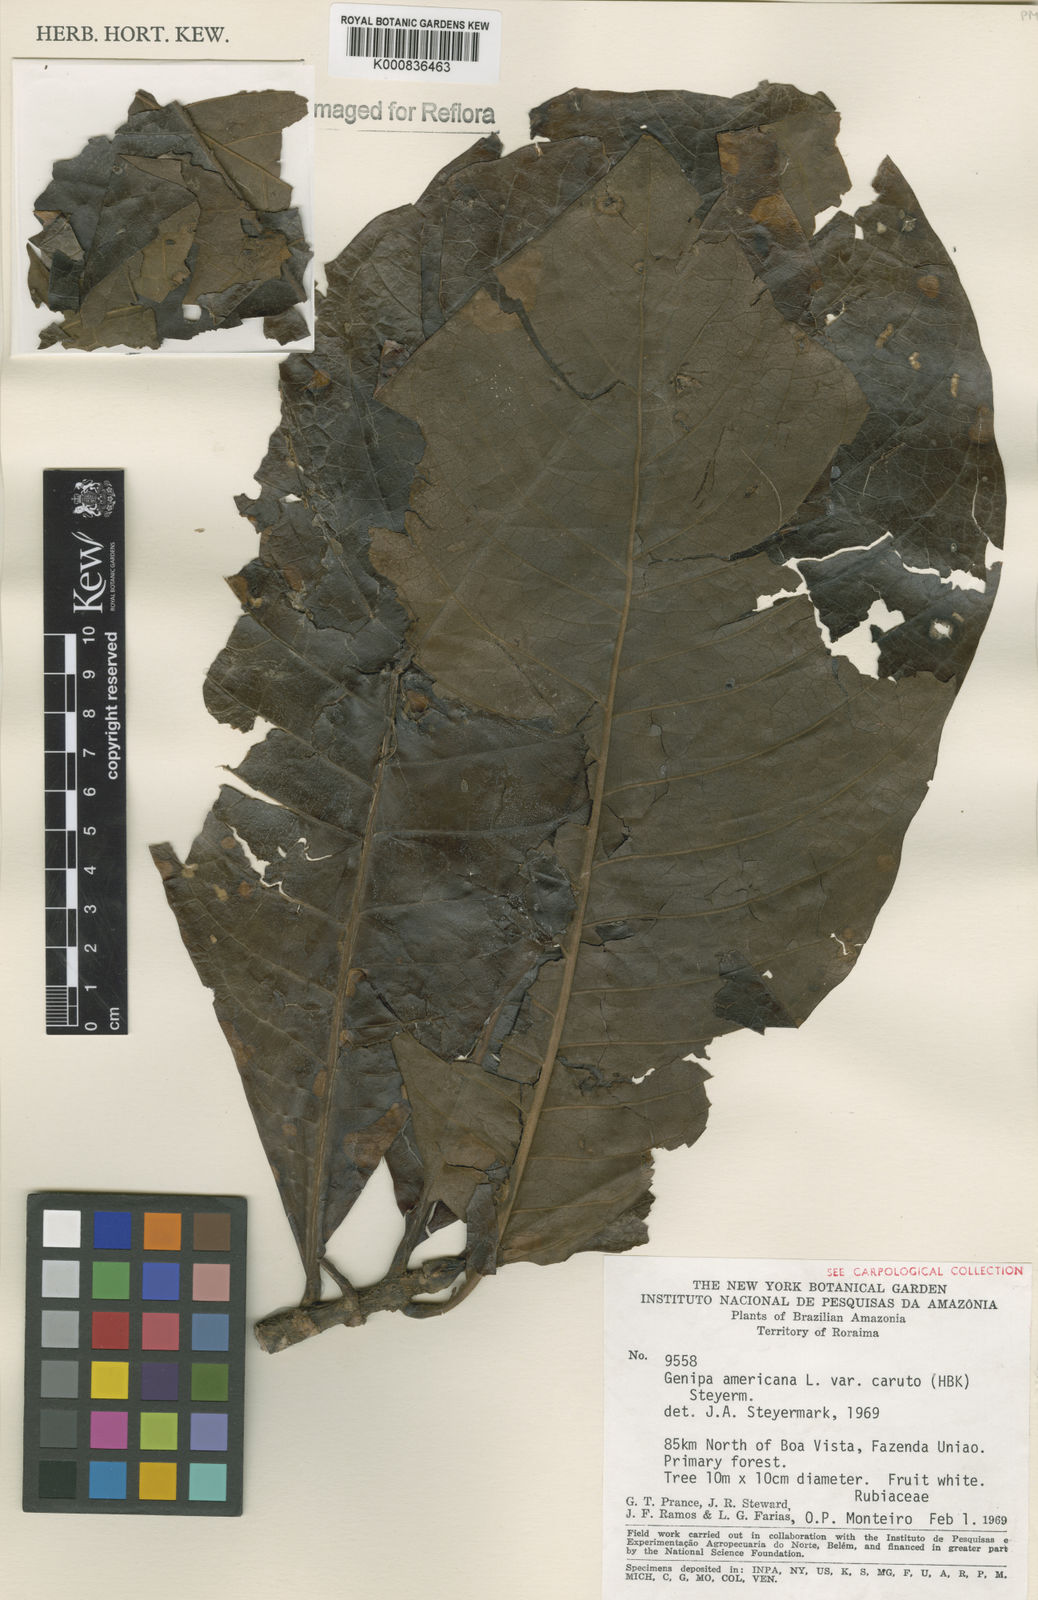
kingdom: Plantae
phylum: Tracheophyta
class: Magnoliopsida
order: Gentianales
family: Rubiaceae
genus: Genipa
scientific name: Genipa americana
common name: Genipap
